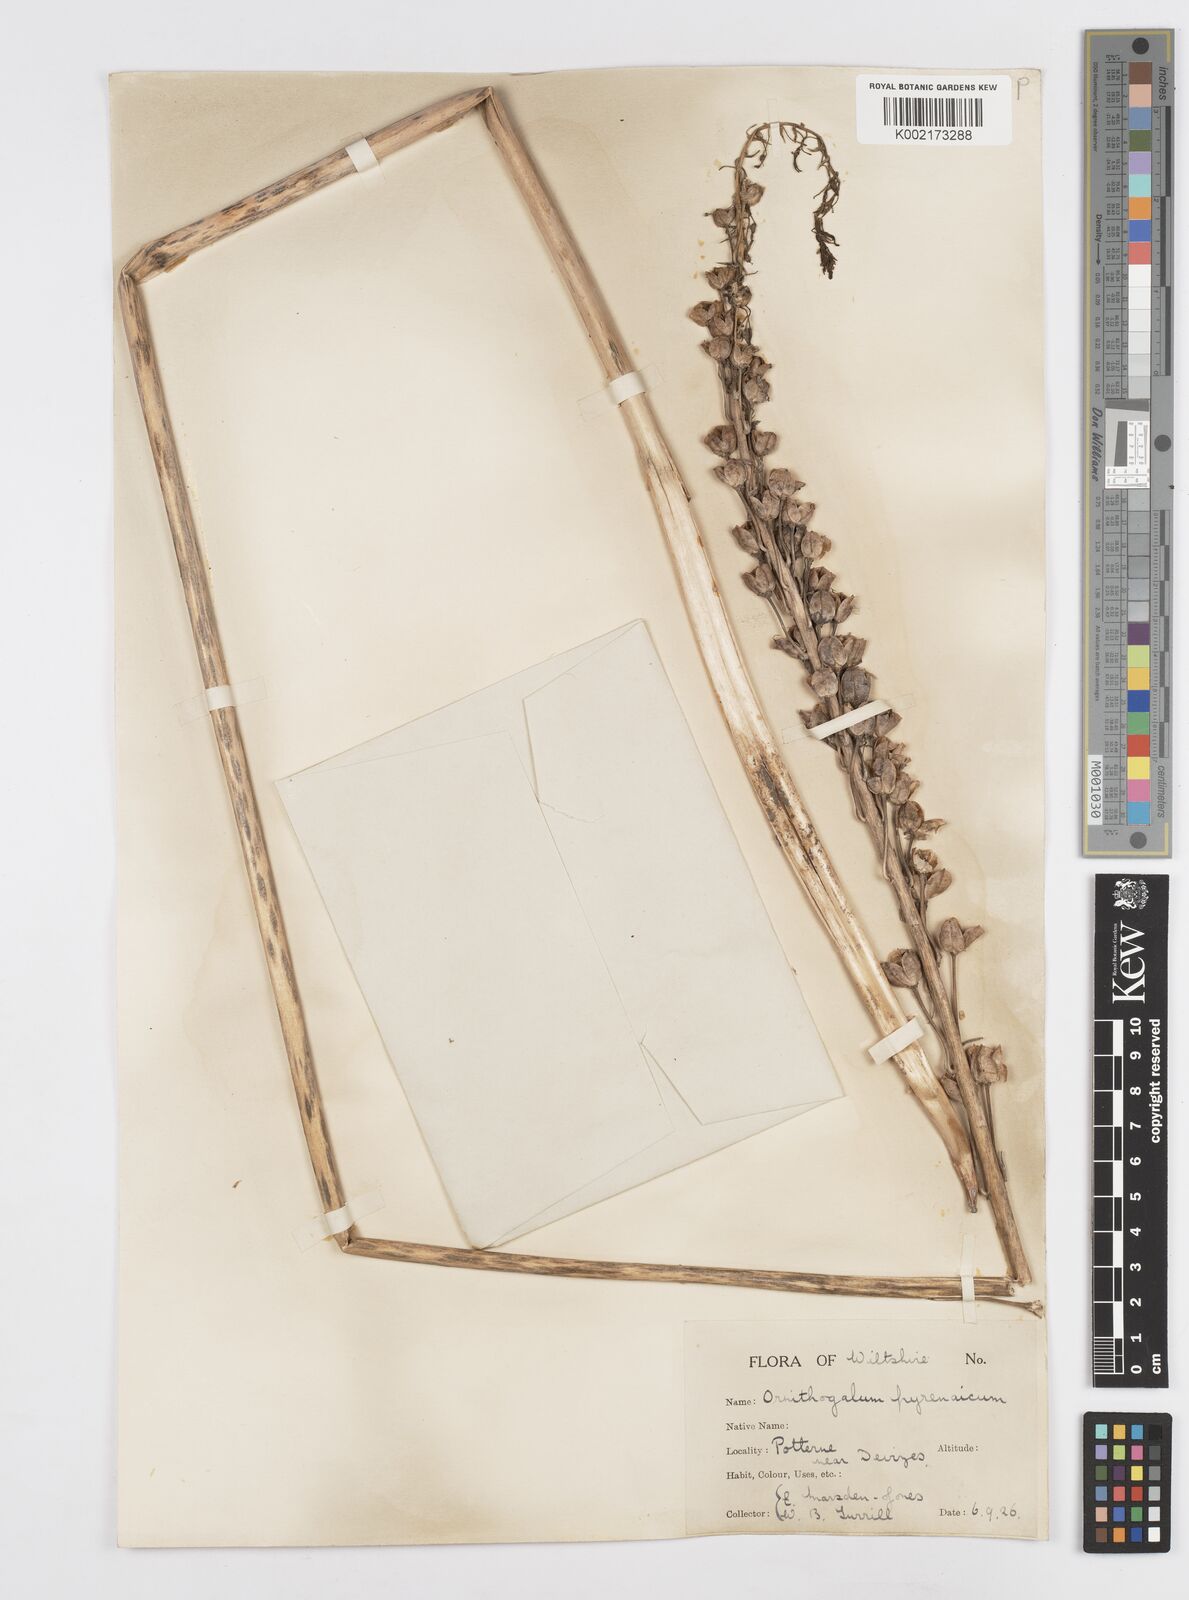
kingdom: Plantae
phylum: Tracheophyta
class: Liliopsida
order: Asparagales
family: Asparagaceae
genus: Ornithogalum
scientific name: Ornithogalum pyrenaicum
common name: Spiked star-of-bethlehem
